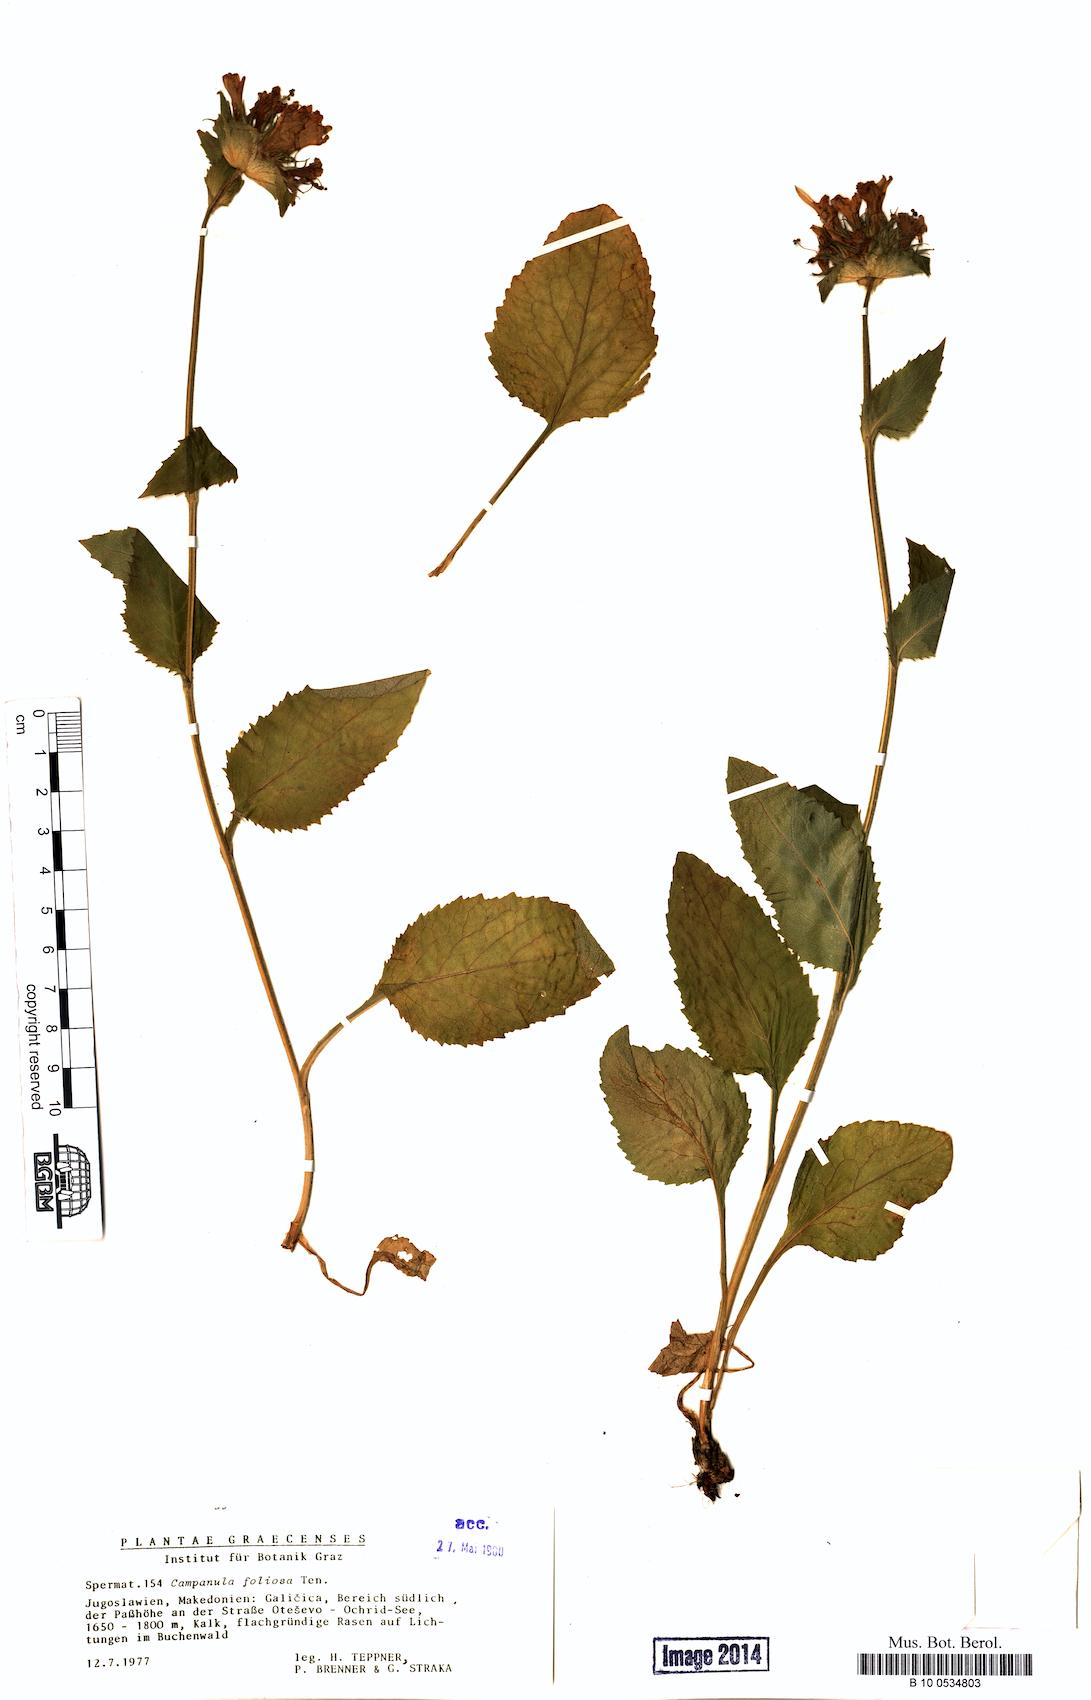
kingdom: Plantae
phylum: Tracheophyta
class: Magnoliopsida
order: Asterales
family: Campanulaceae
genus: Campanula
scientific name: Campanula foliosa
